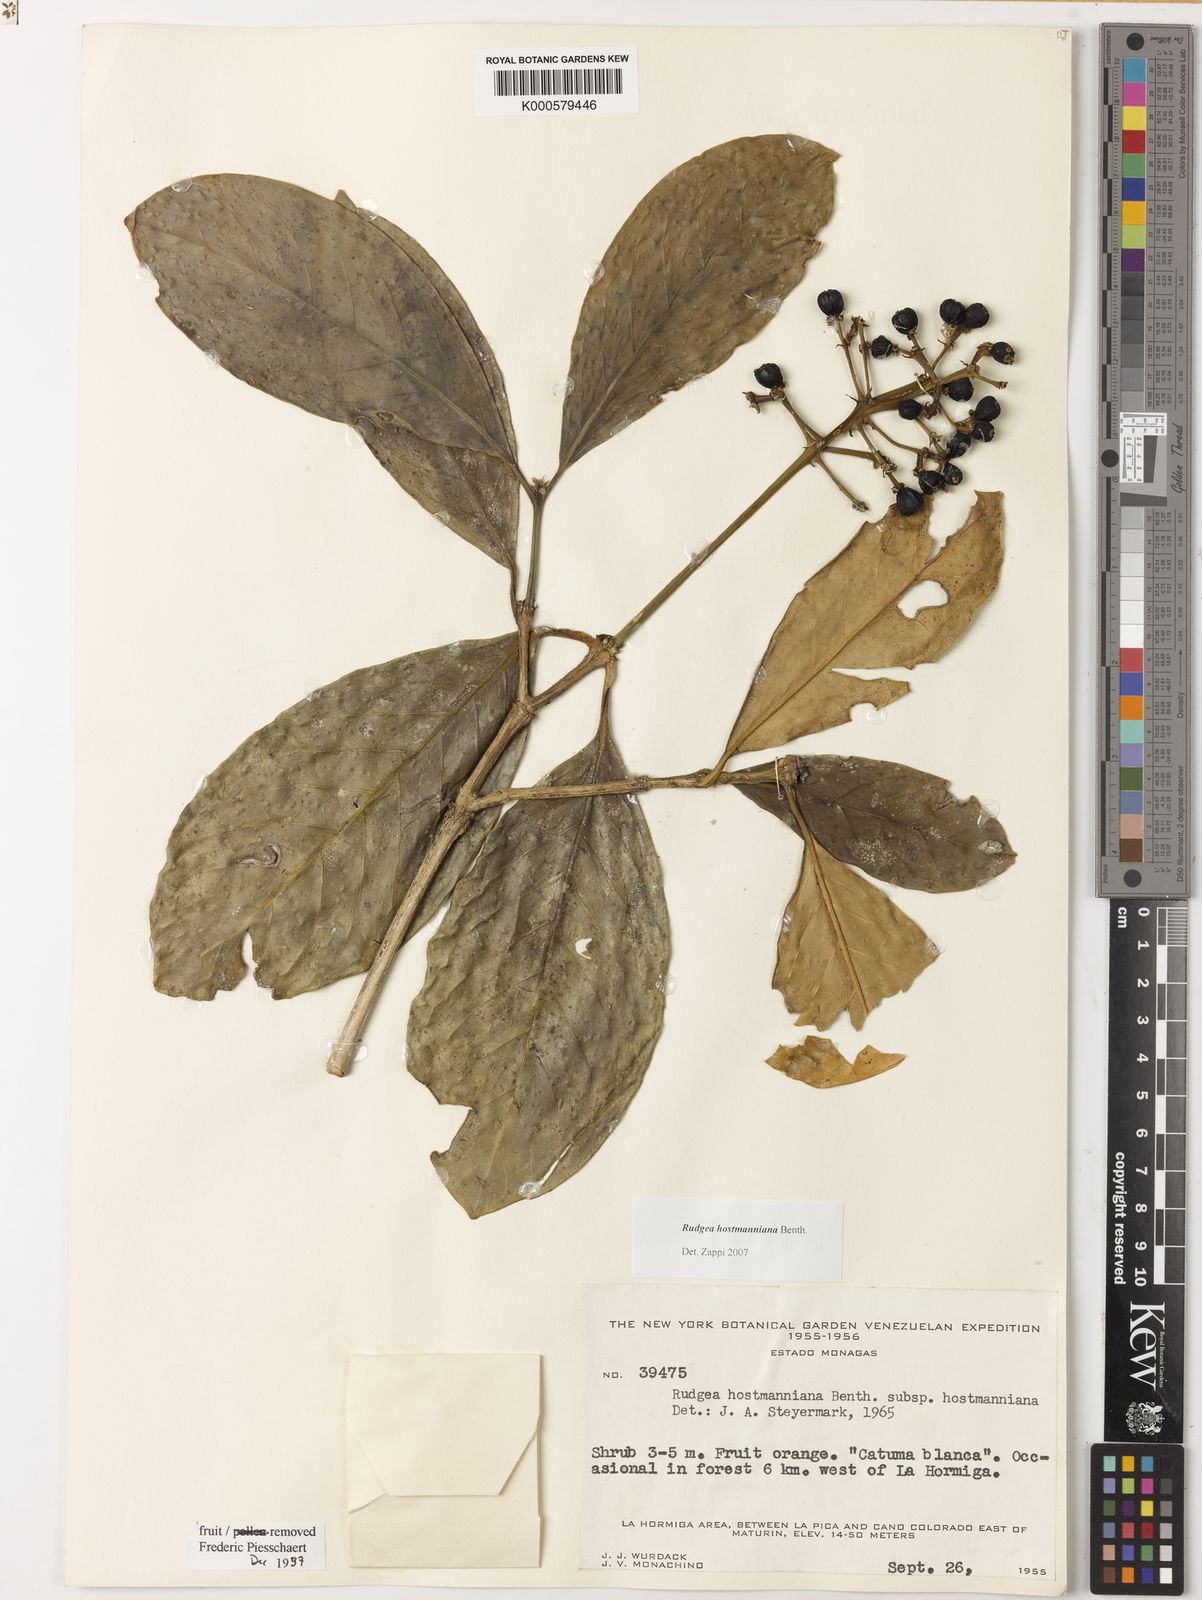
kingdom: Plantae
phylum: Tracheophyta
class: Magnoliopsida
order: Gentianales
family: Rubiaceae
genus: Rudgea
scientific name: Rudgea hostmanniana
